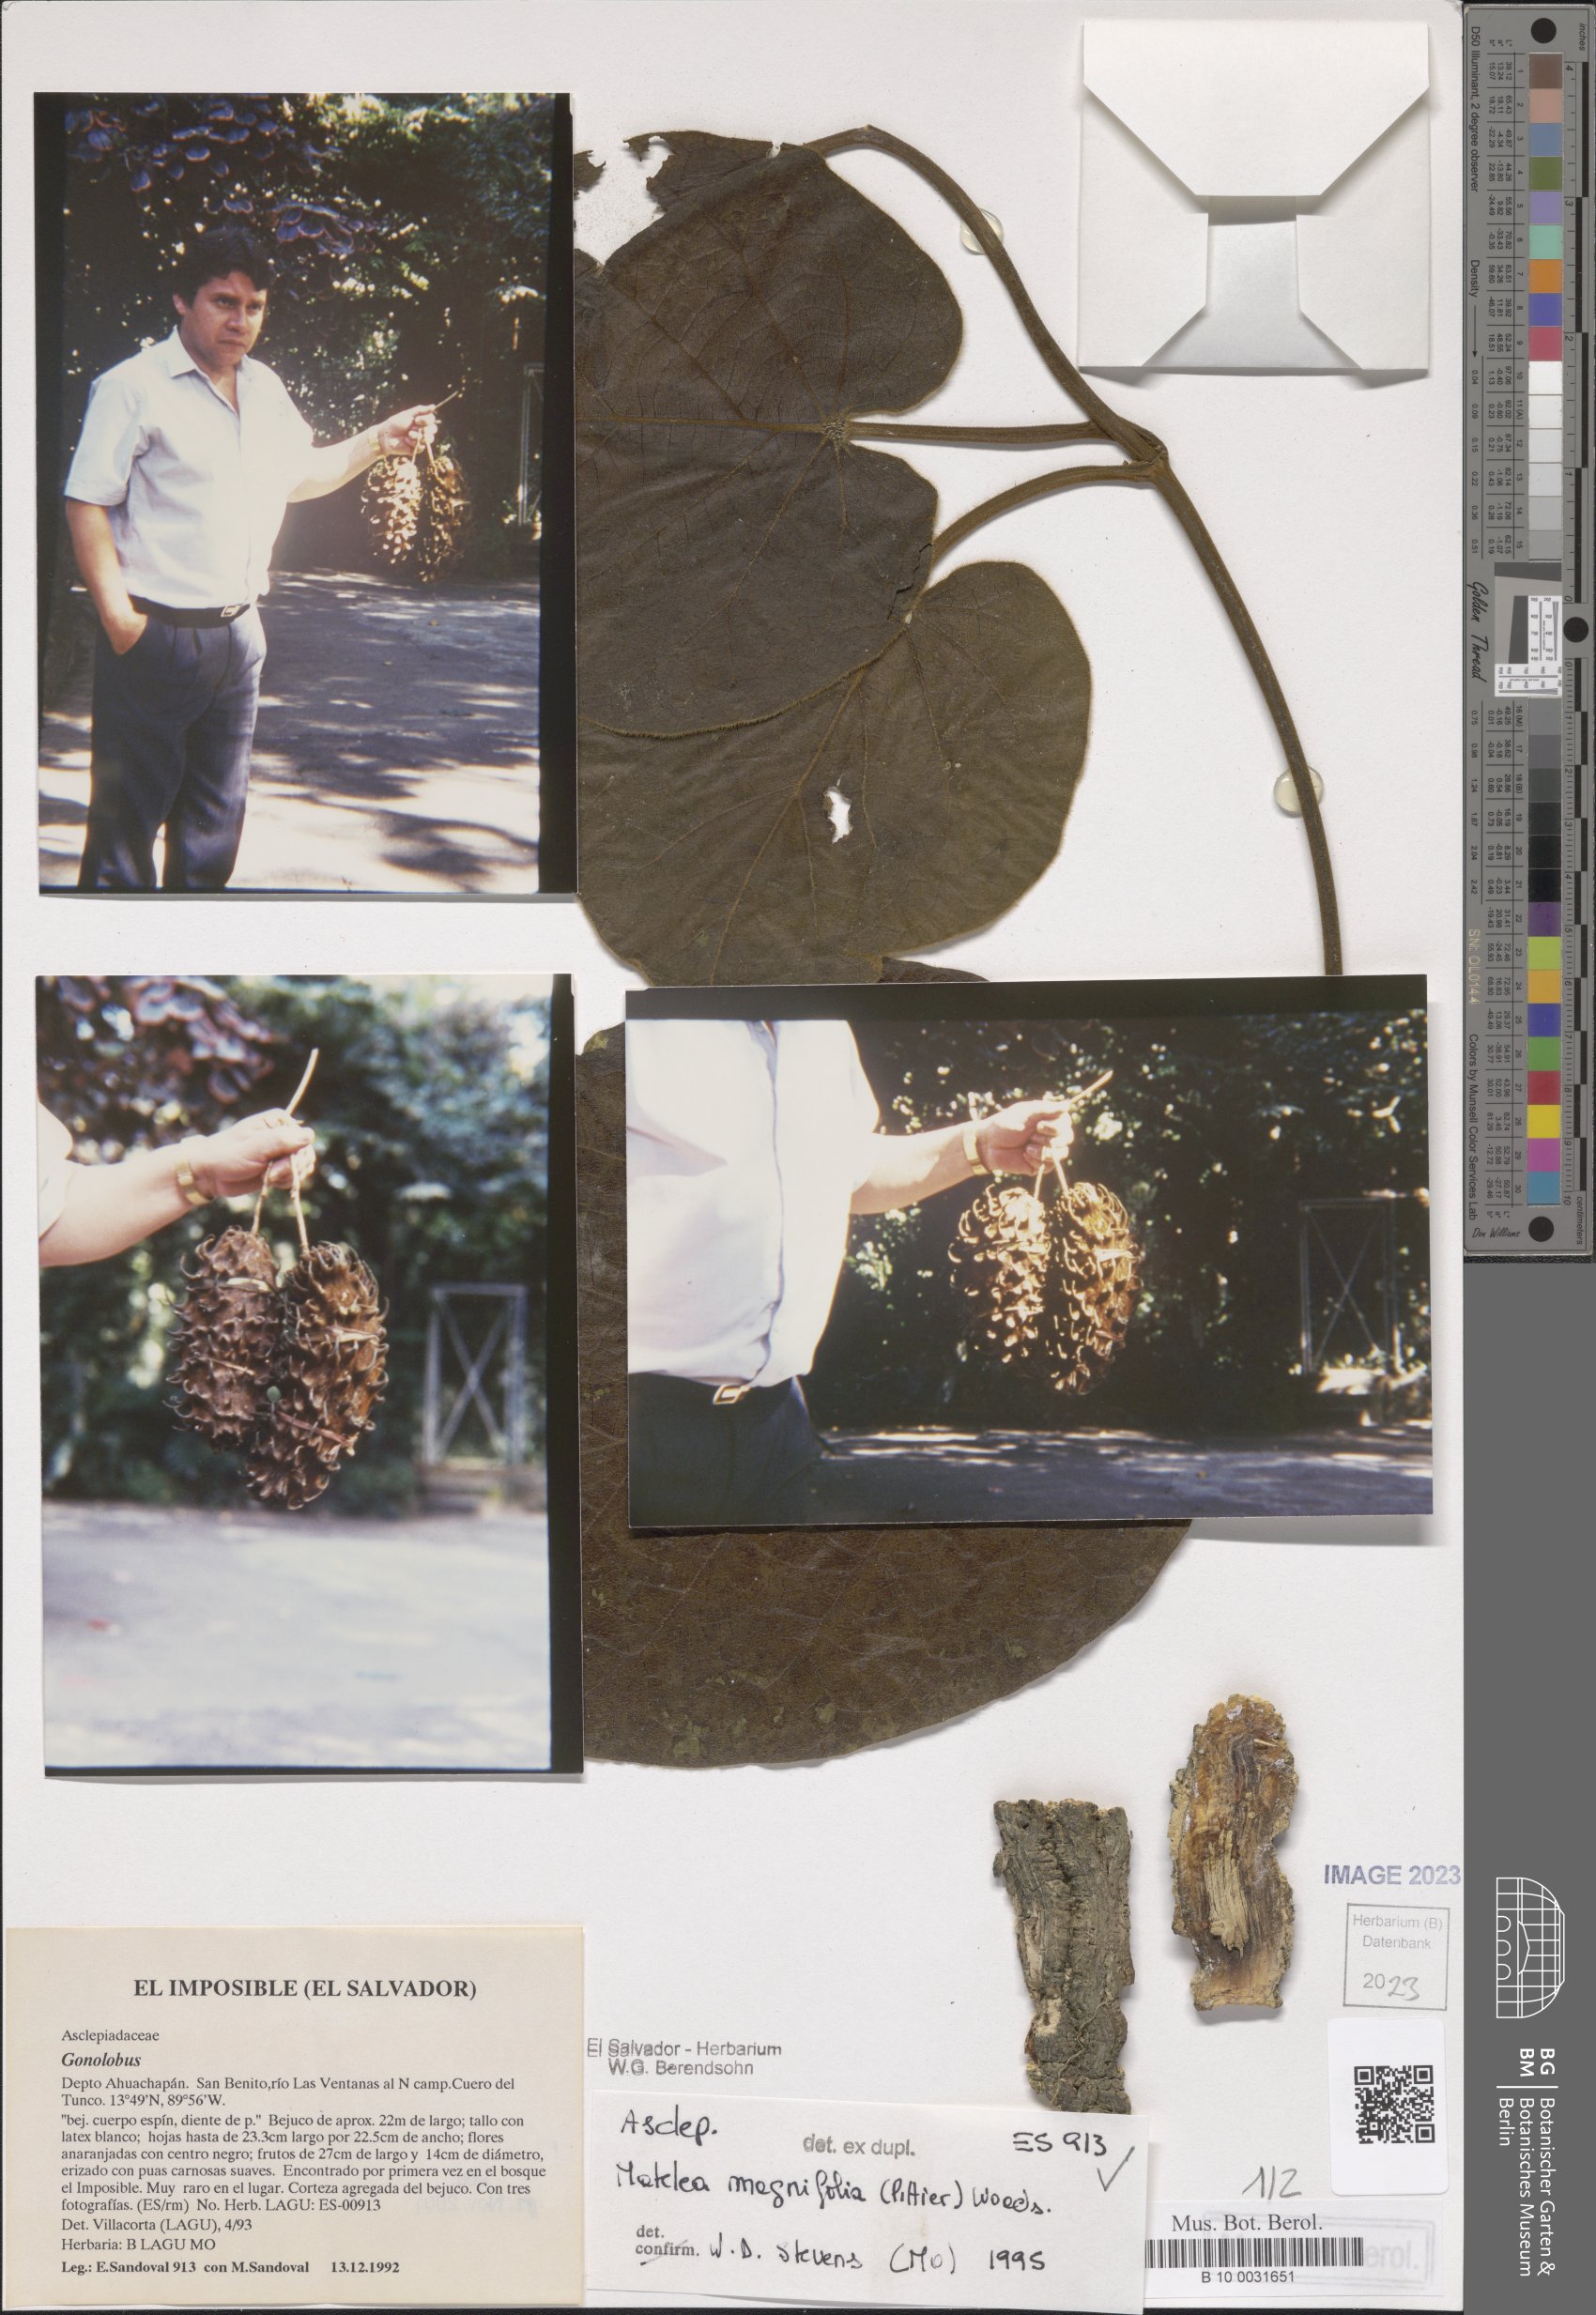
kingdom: Plantae
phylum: Tracheophyta
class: Magnoliopsida
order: Gentianales
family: Apocynaceae
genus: Bruceholstia
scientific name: Bruceholstia sidifolia
